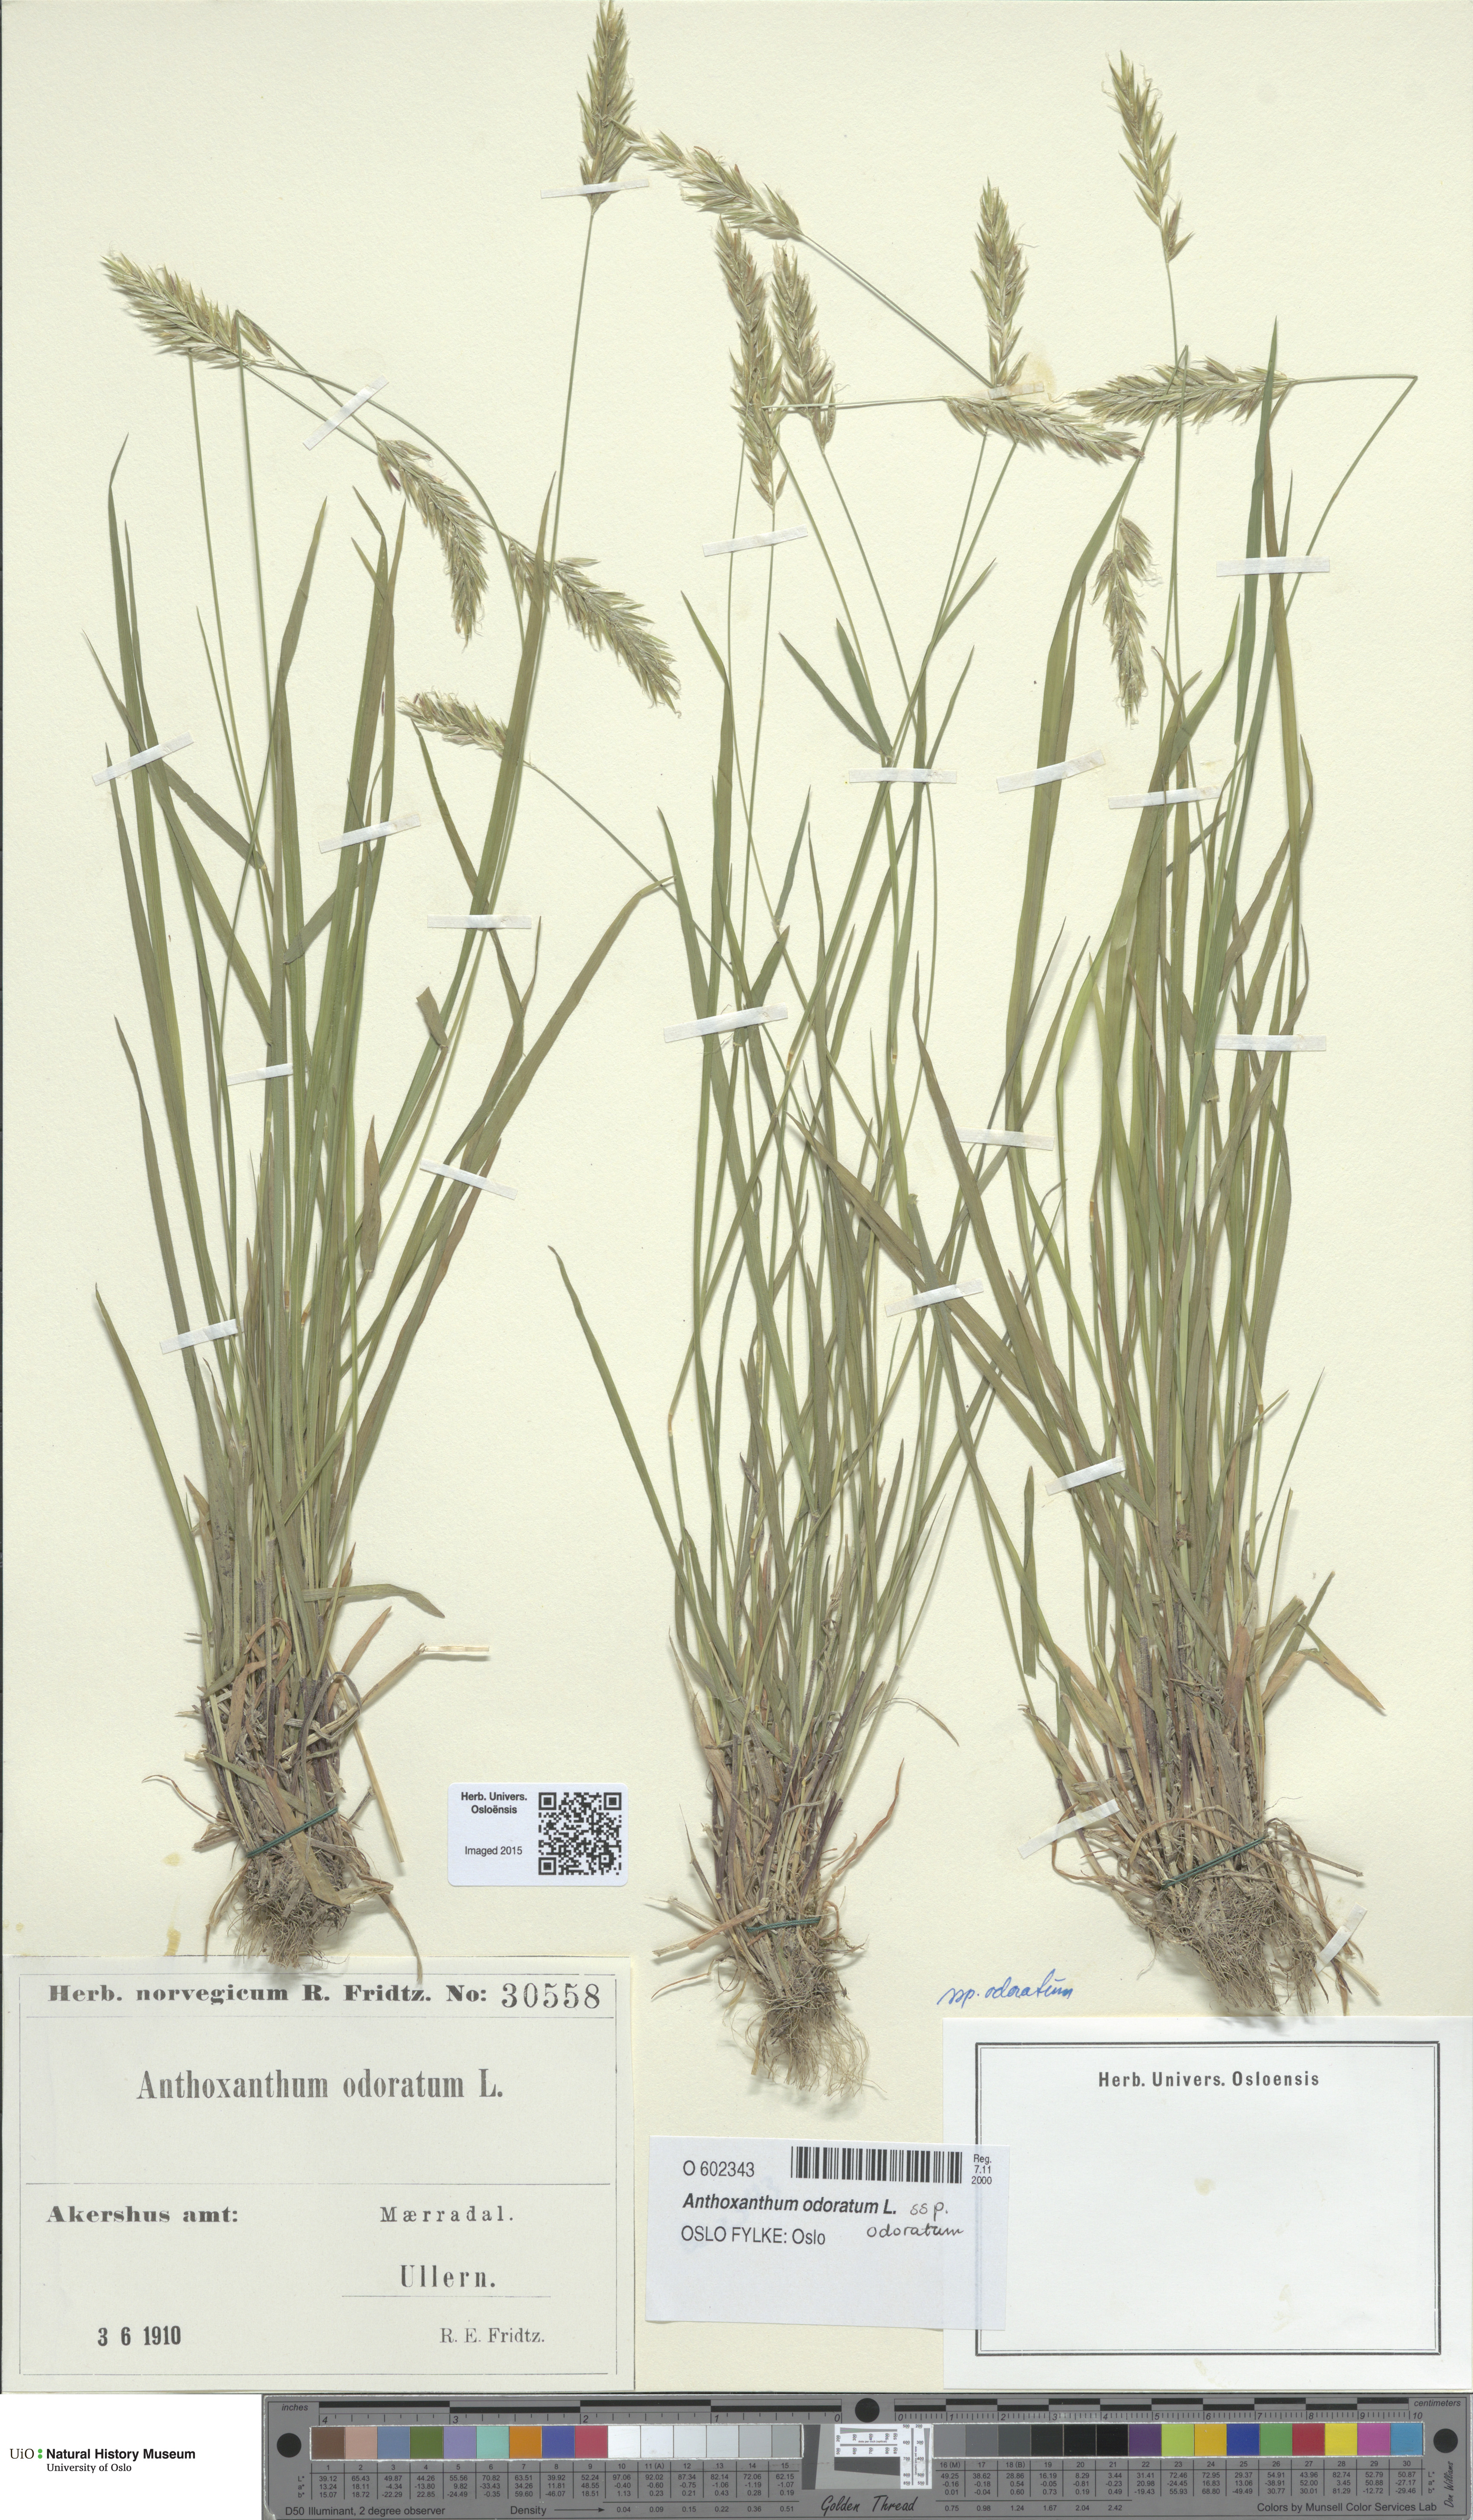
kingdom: Plantae
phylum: Tracheophyta
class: Liliopsida
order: Poales
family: Poaceae
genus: Anthoxanthum
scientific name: Anthoxanthum odoratum
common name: Sweet vernalgrass
